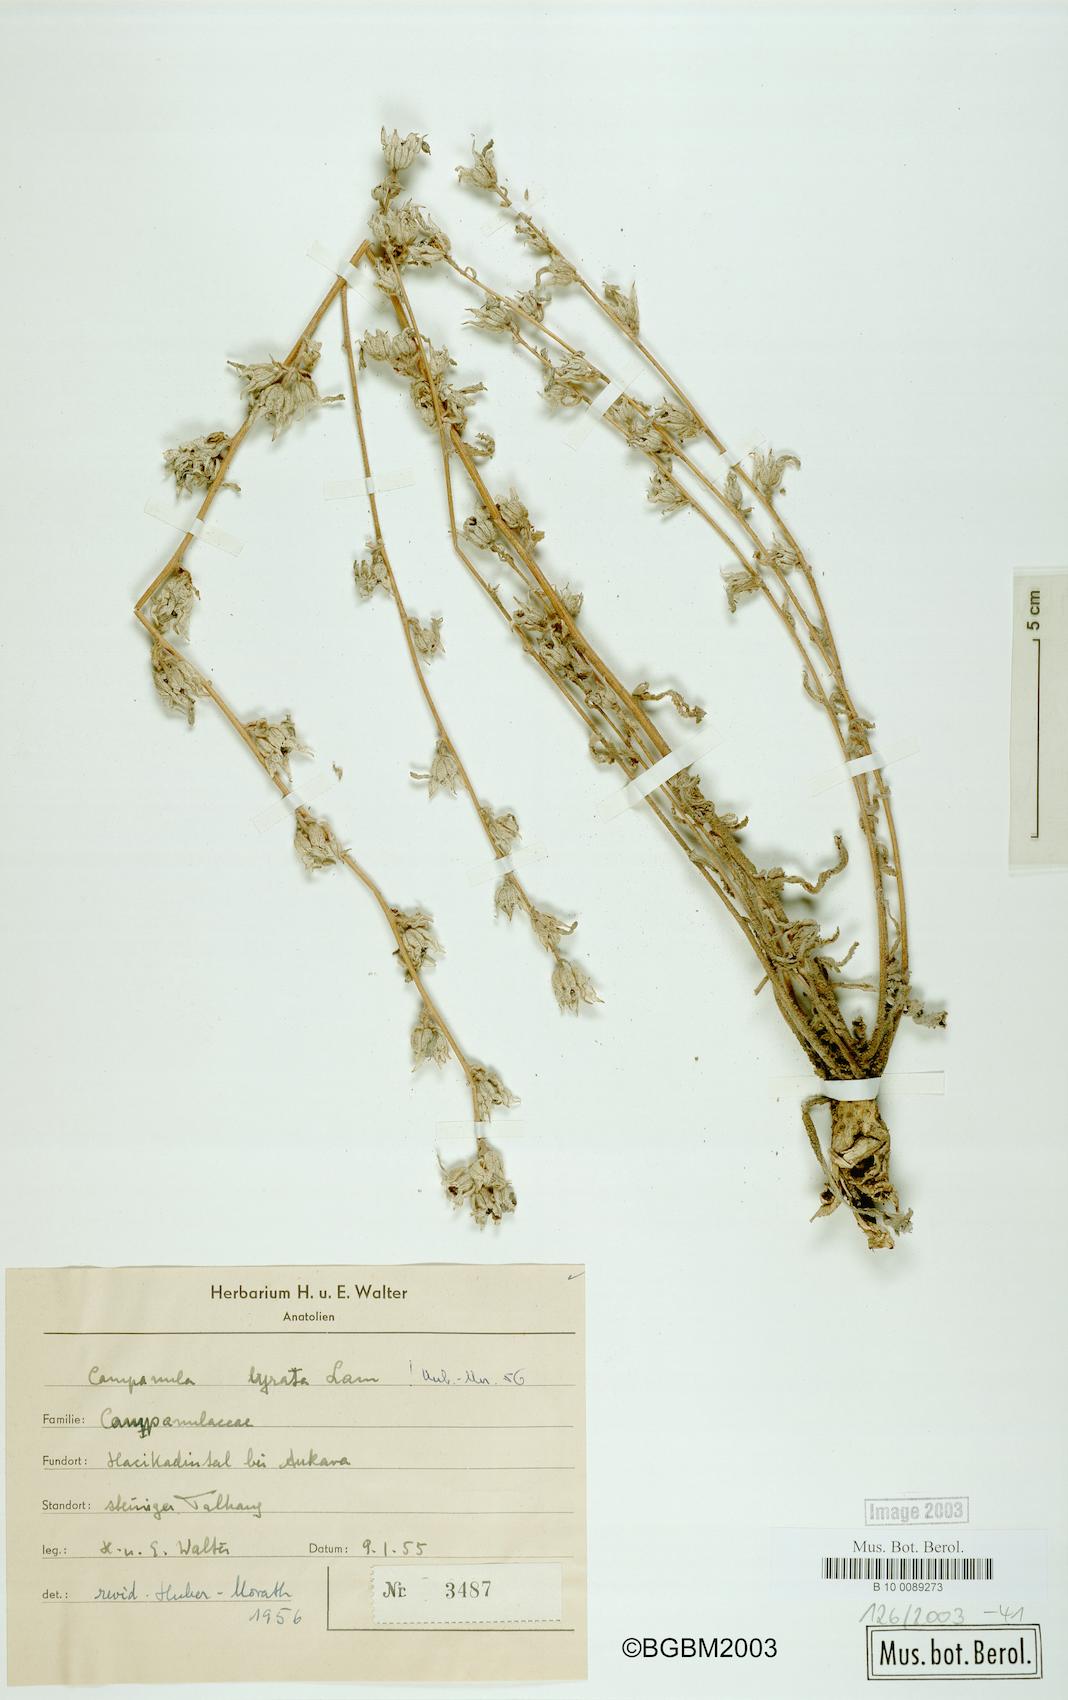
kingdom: Plantae
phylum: Tracheophyta
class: Magnoliopsida
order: Asterales
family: Campanulaceae
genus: Campanula
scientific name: Campanula lyrata
